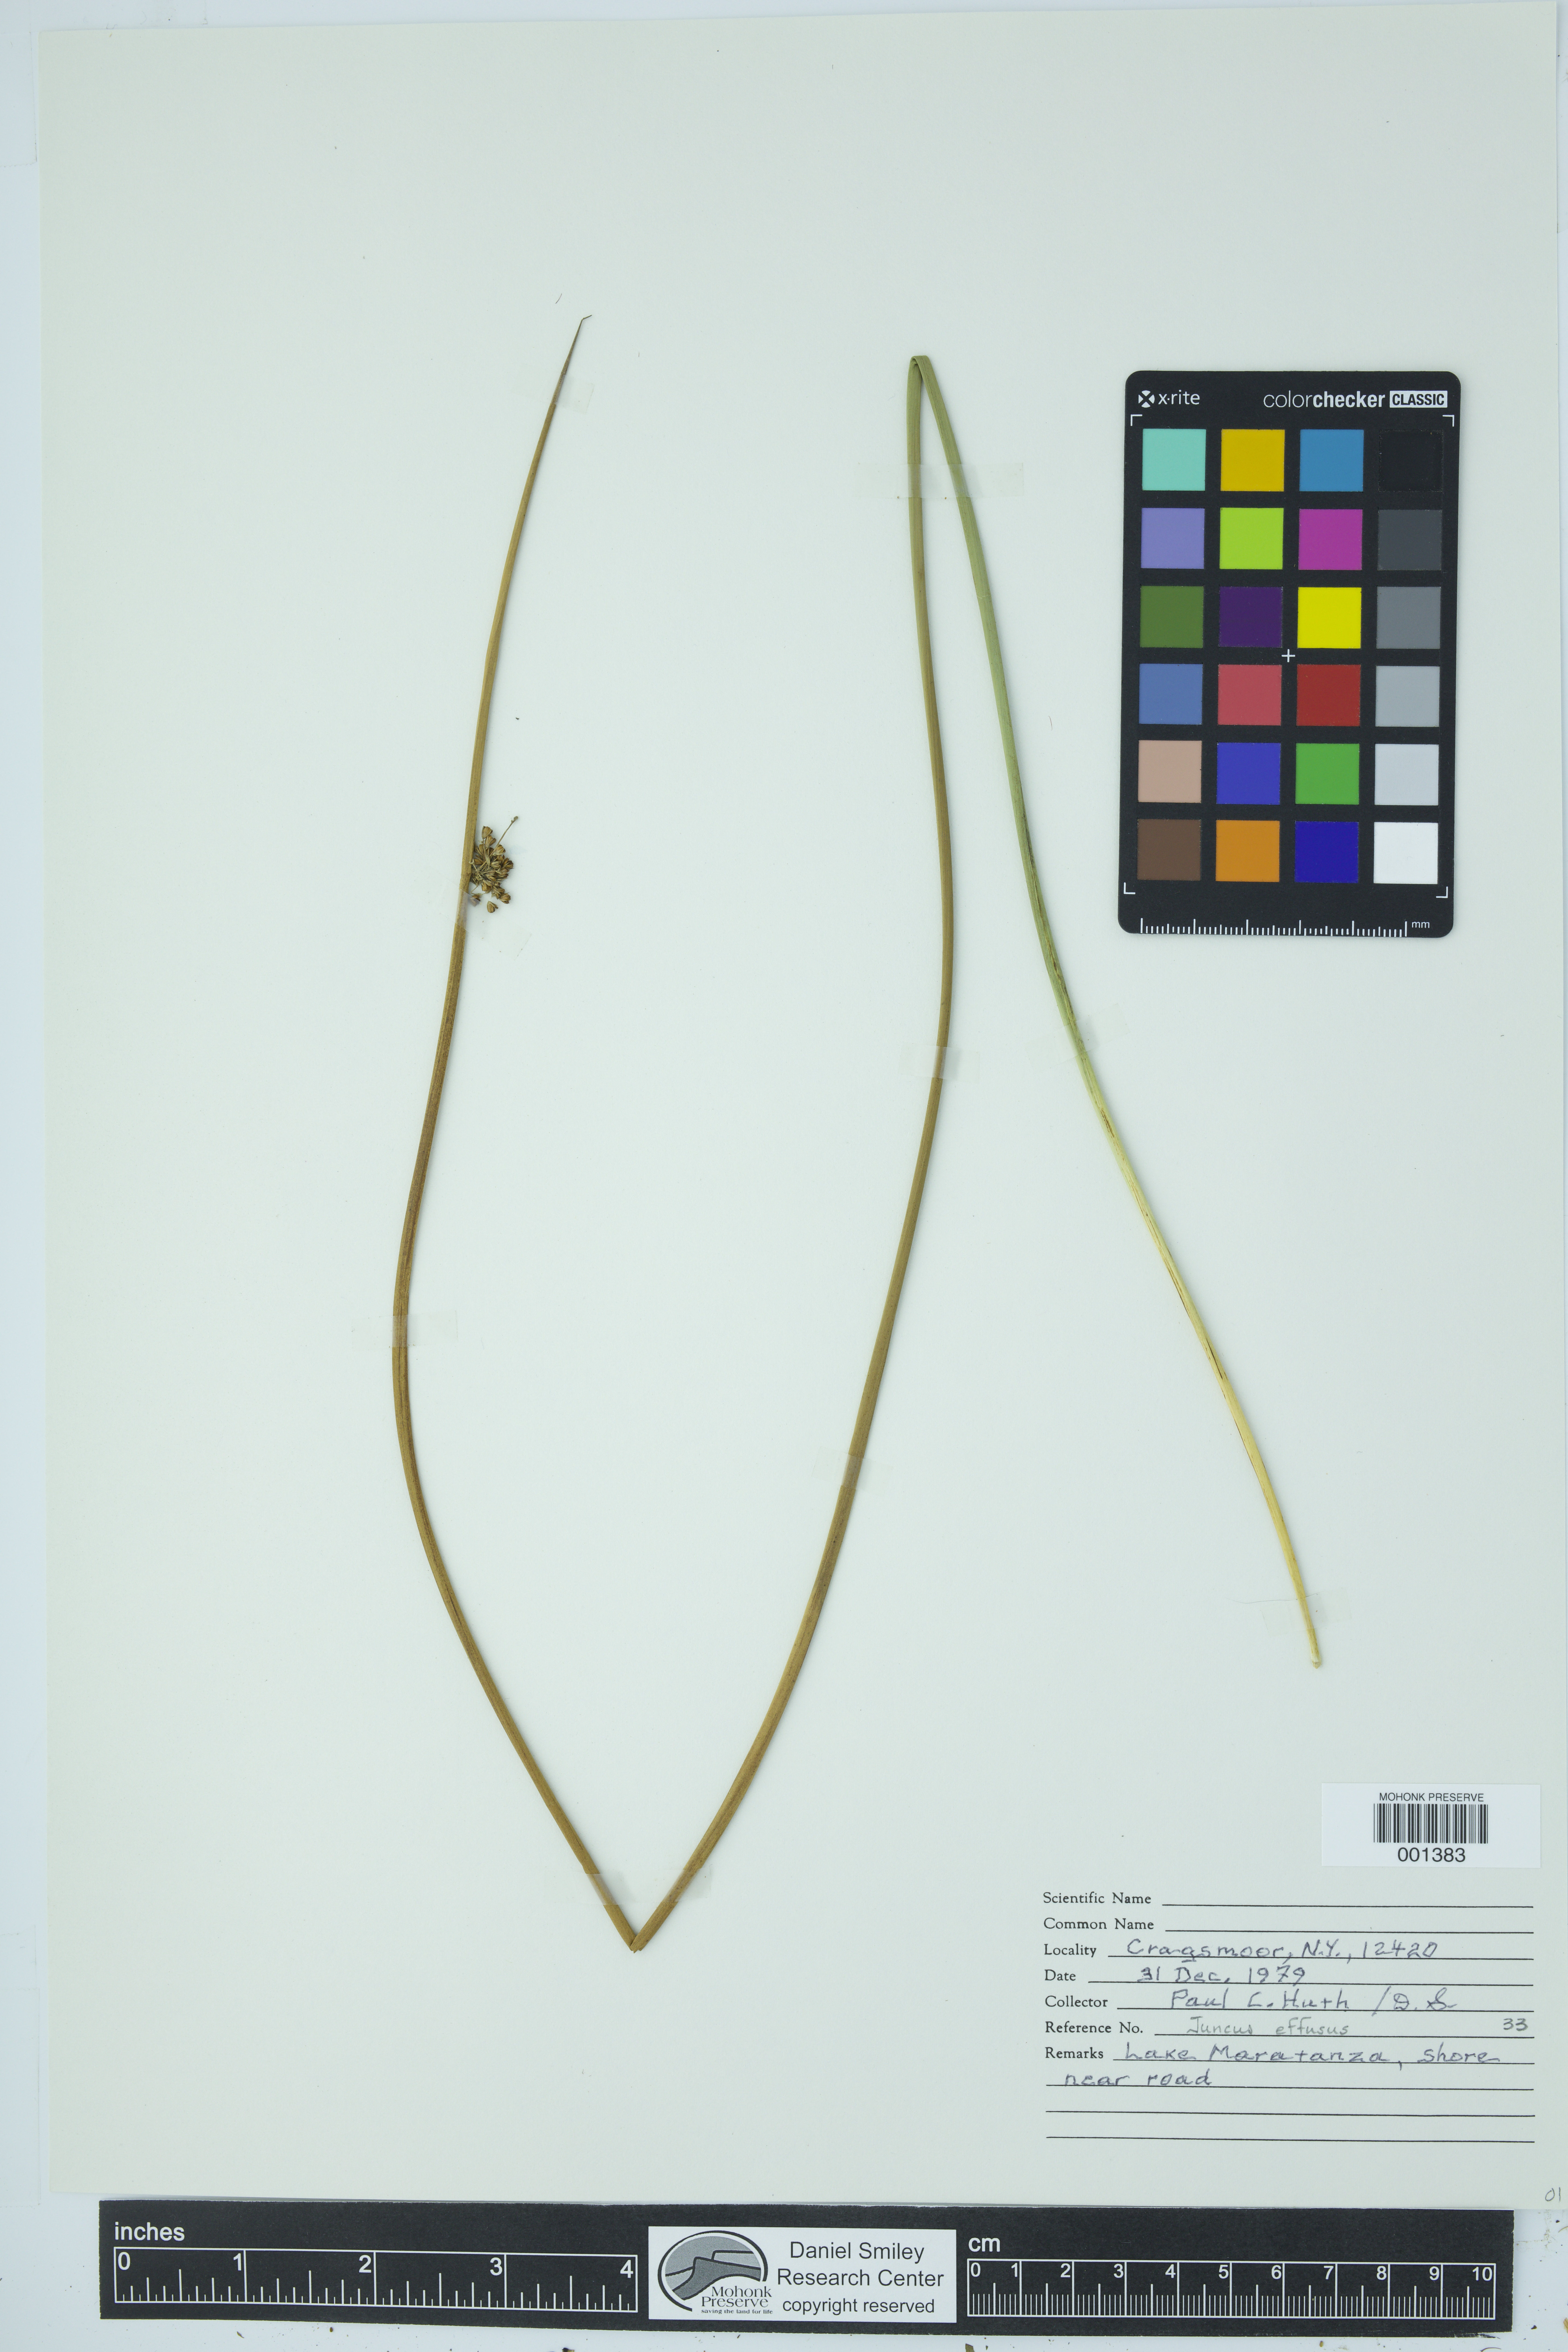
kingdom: Plantae
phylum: Tracheophyta
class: Liliopsida
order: Poales
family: Juncaceae
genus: Juncus
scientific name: Juncus effusus
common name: Soft rush
